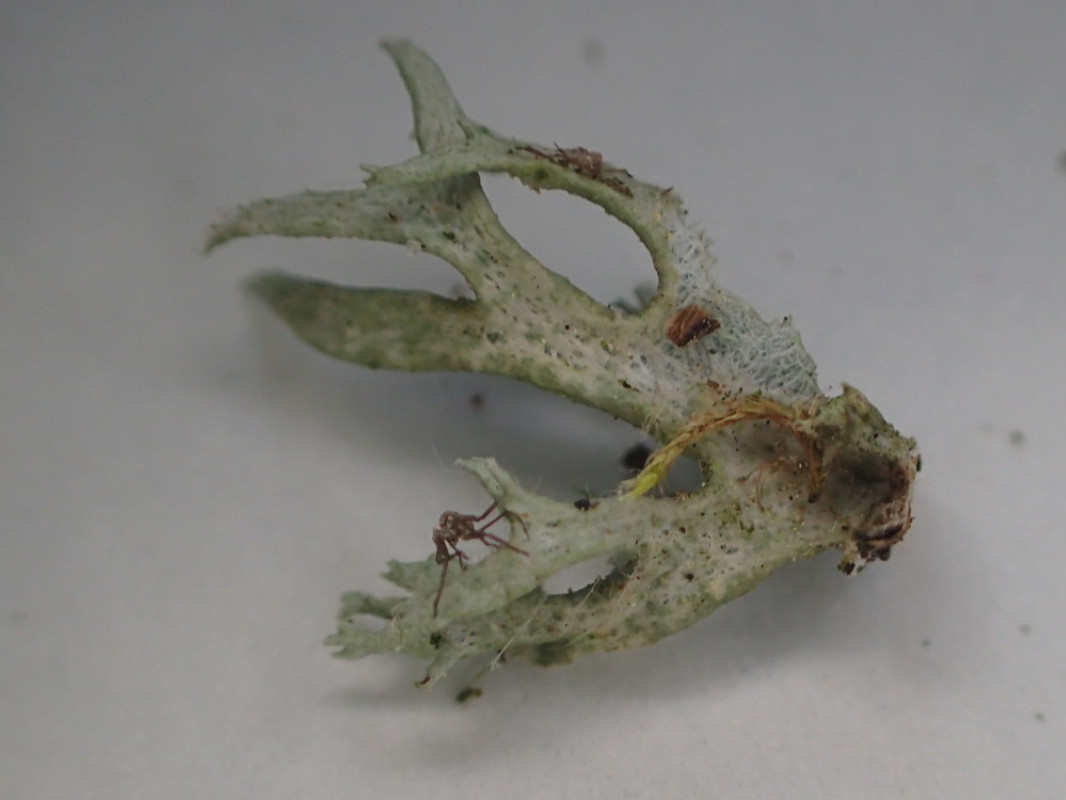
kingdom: Fungi
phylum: Ascomycota
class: Lecanoromycetes
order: Lecanorales
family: Parmeliaceae
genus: Evernia
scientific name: Evernia prunastri
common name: almindelig slåenlav
